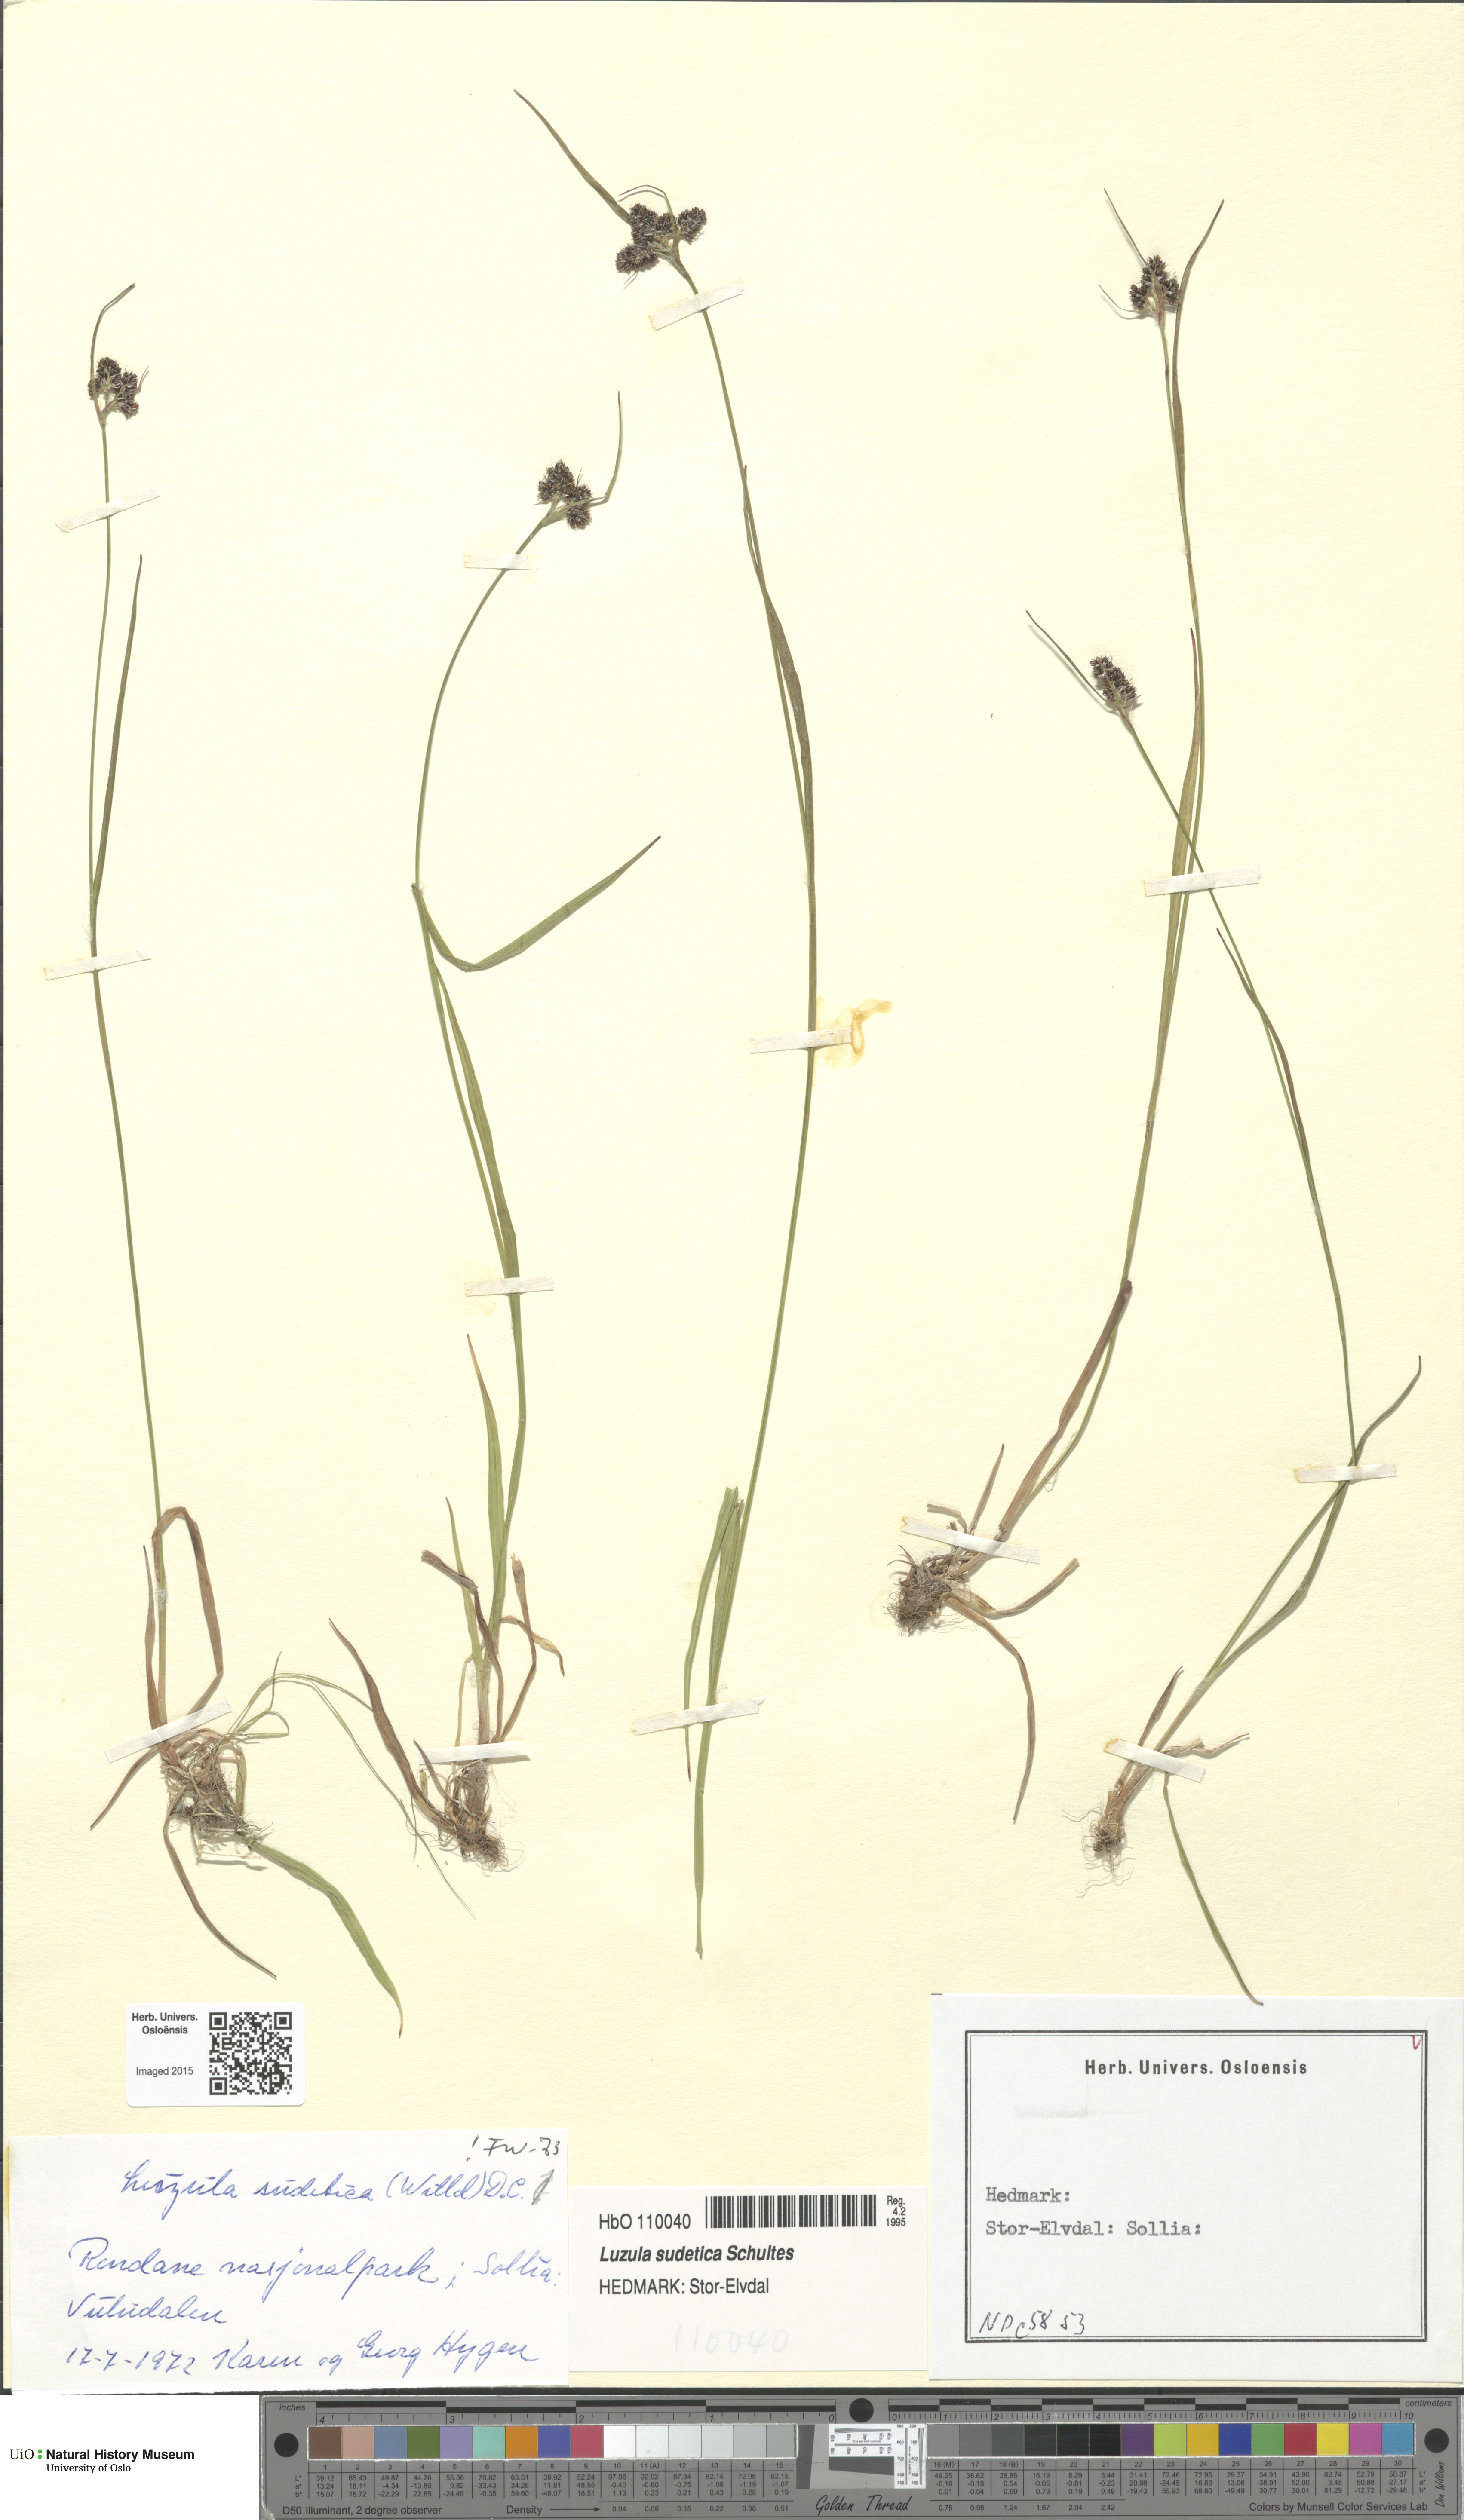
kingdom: Plantae
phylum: Tracheophyta
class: Liliopsida
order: Poales
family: Juncaceae
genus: Luzula
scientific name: Luzula sudetica
